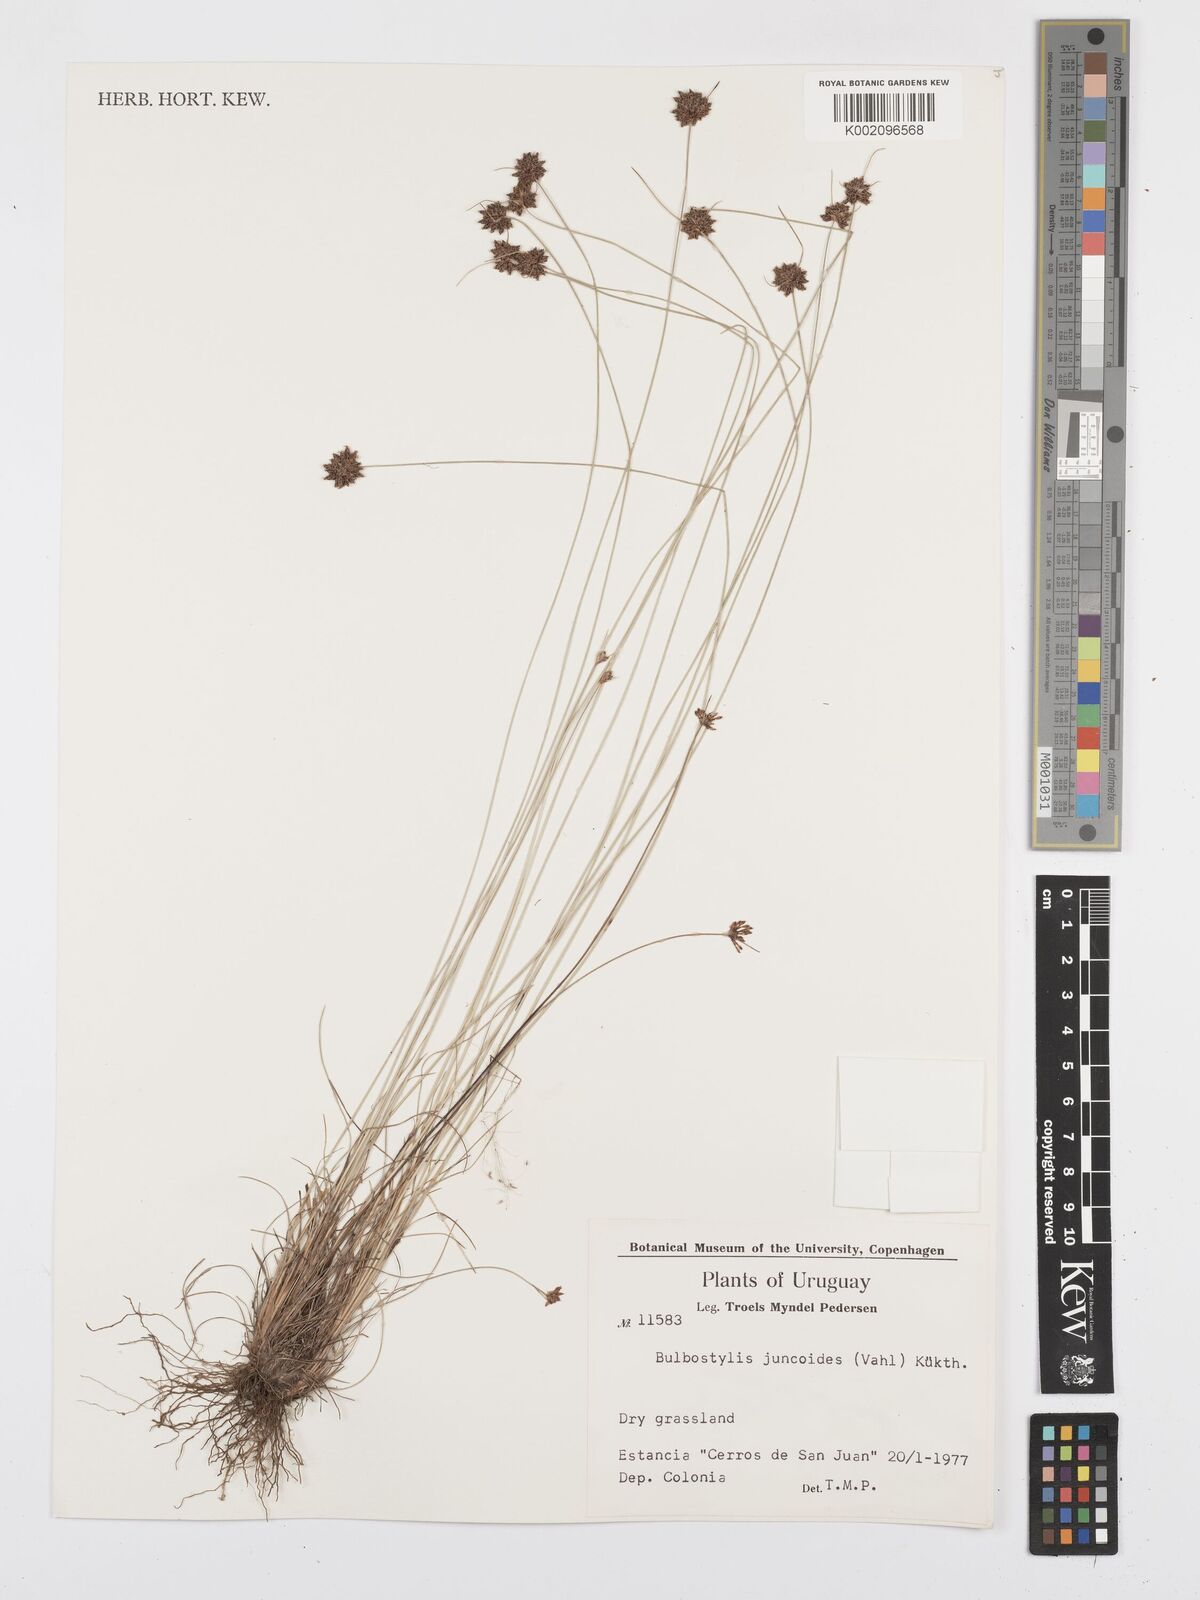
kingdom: Plantae
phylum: Tracheophyta
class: Liliopsida
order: Poales
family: Cyperaceae
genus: Bulbostylis
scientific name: Bulbostylis juncoides
